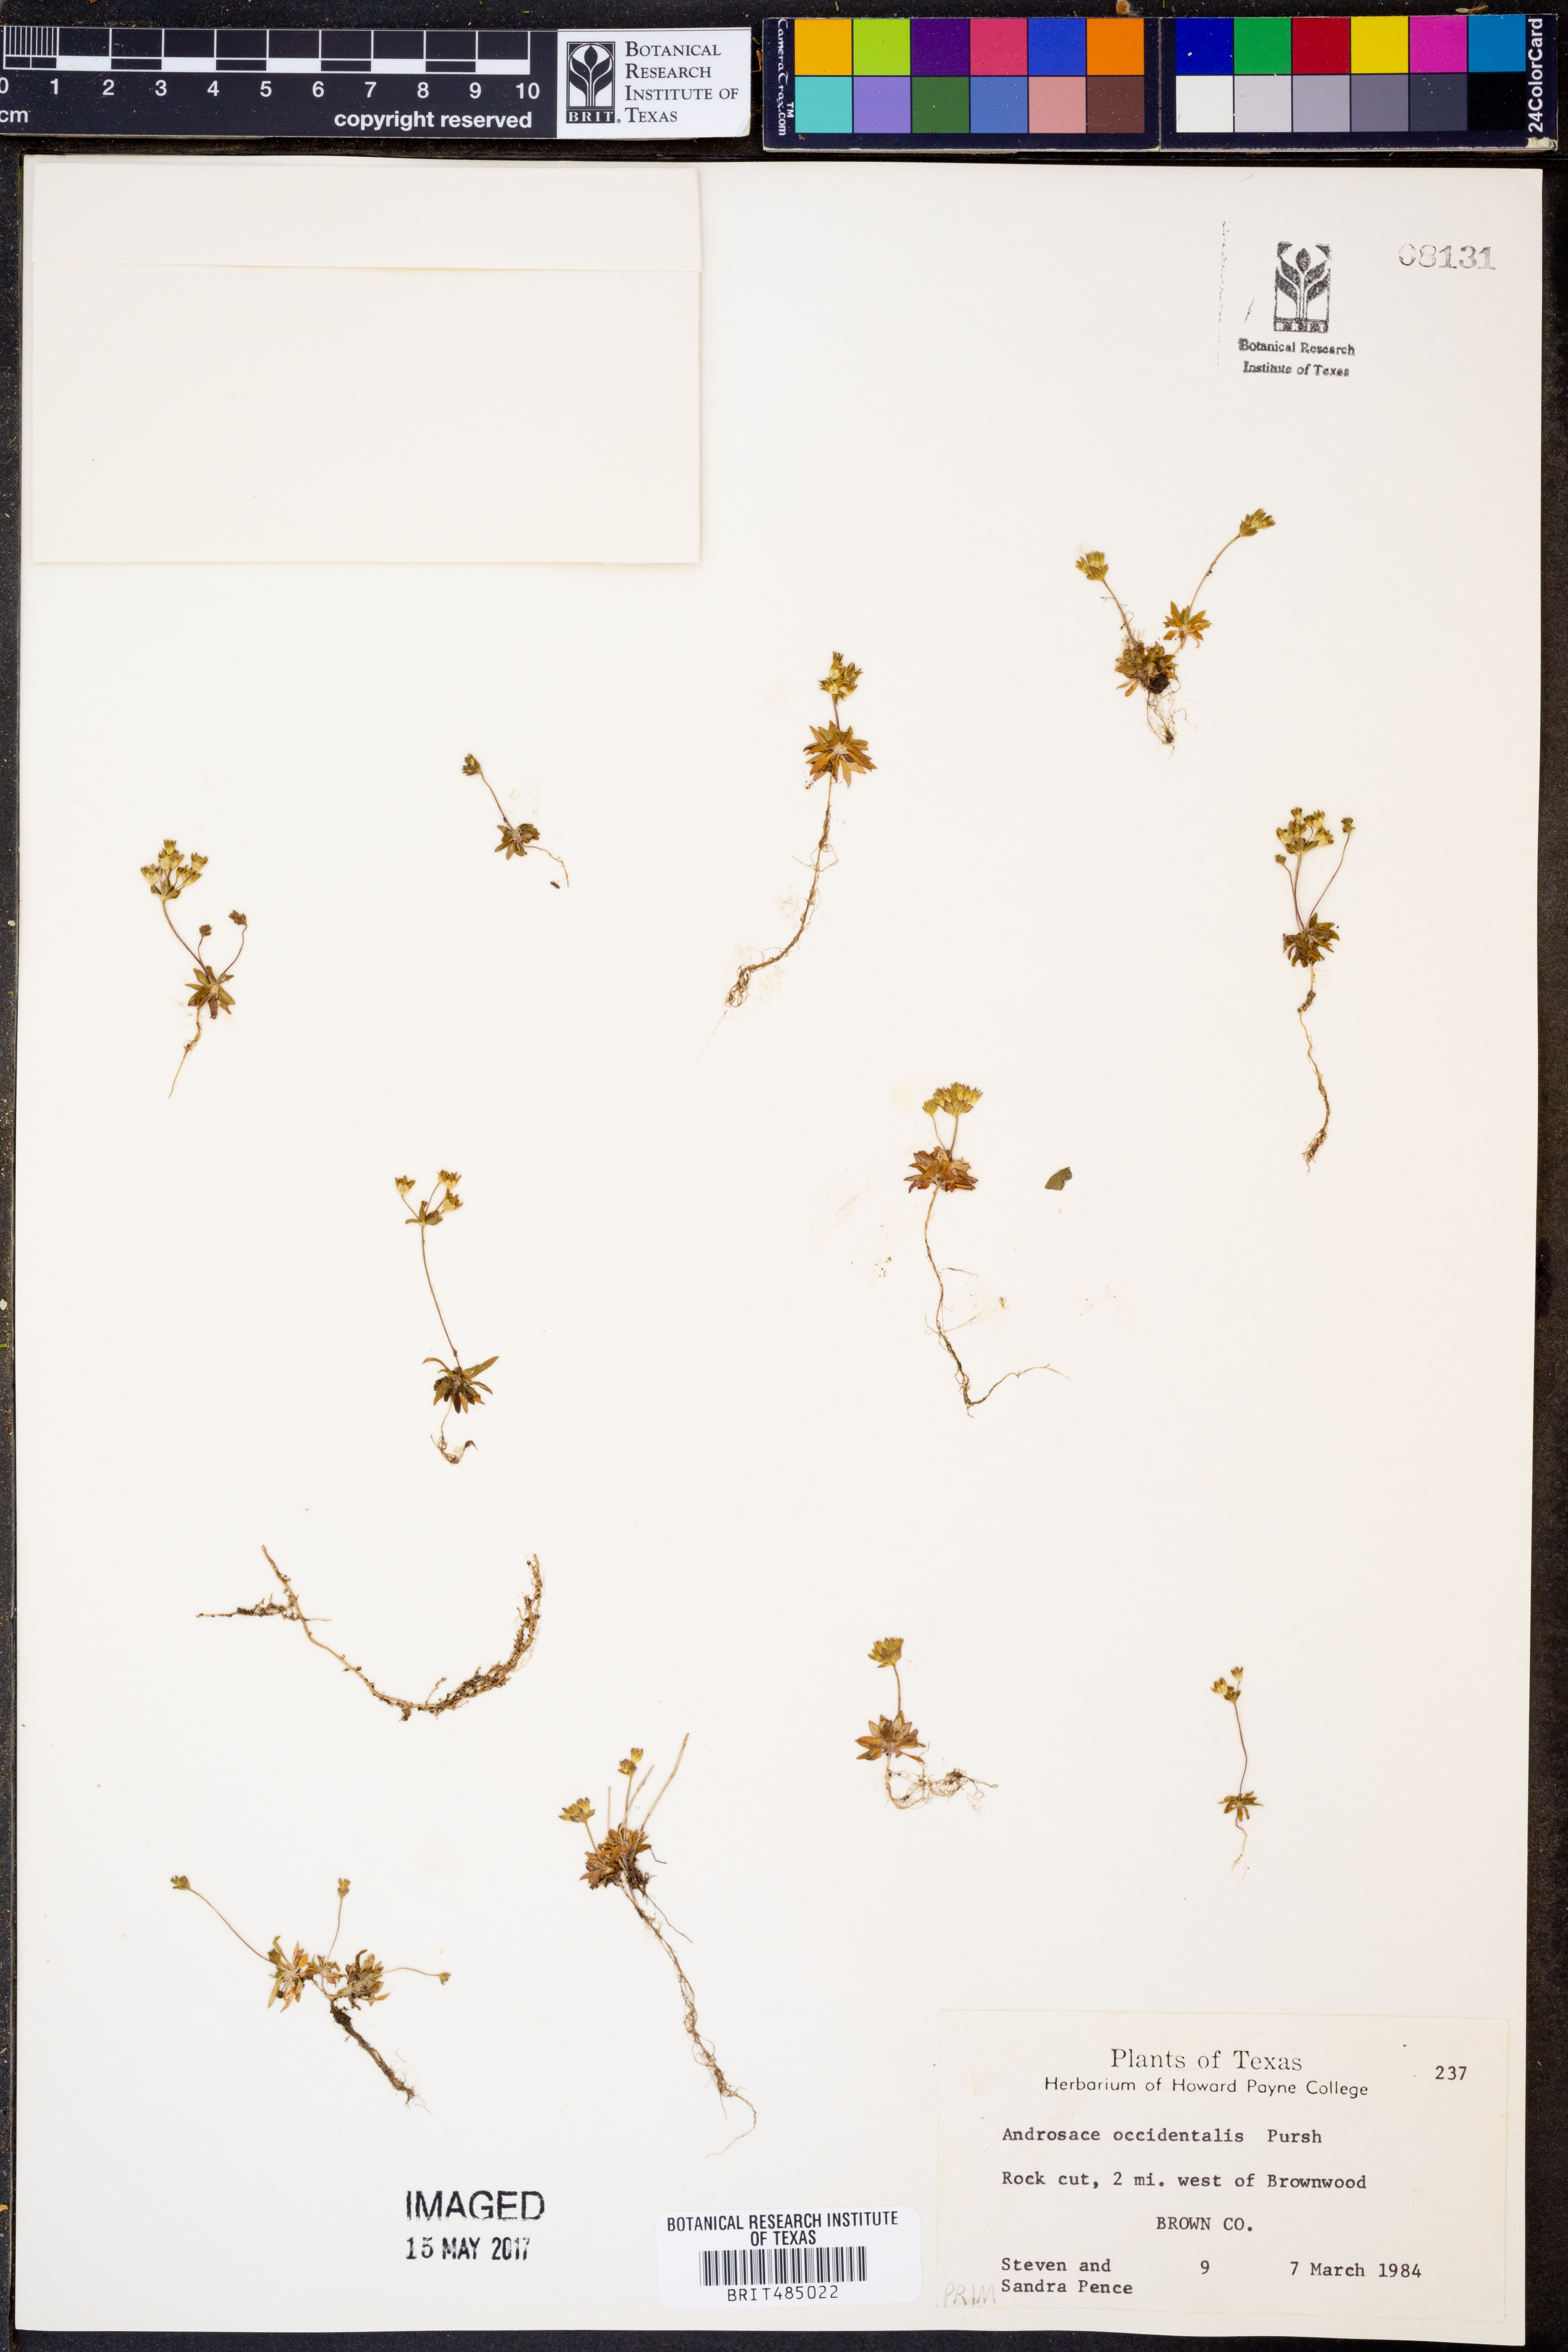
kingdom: Plantae
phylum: Tracheophyta
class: Magnoliopsida
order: Ericales
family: Primulaceae
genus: Androsace
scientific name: Androsace occidentalis
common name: West rock-jasmine
